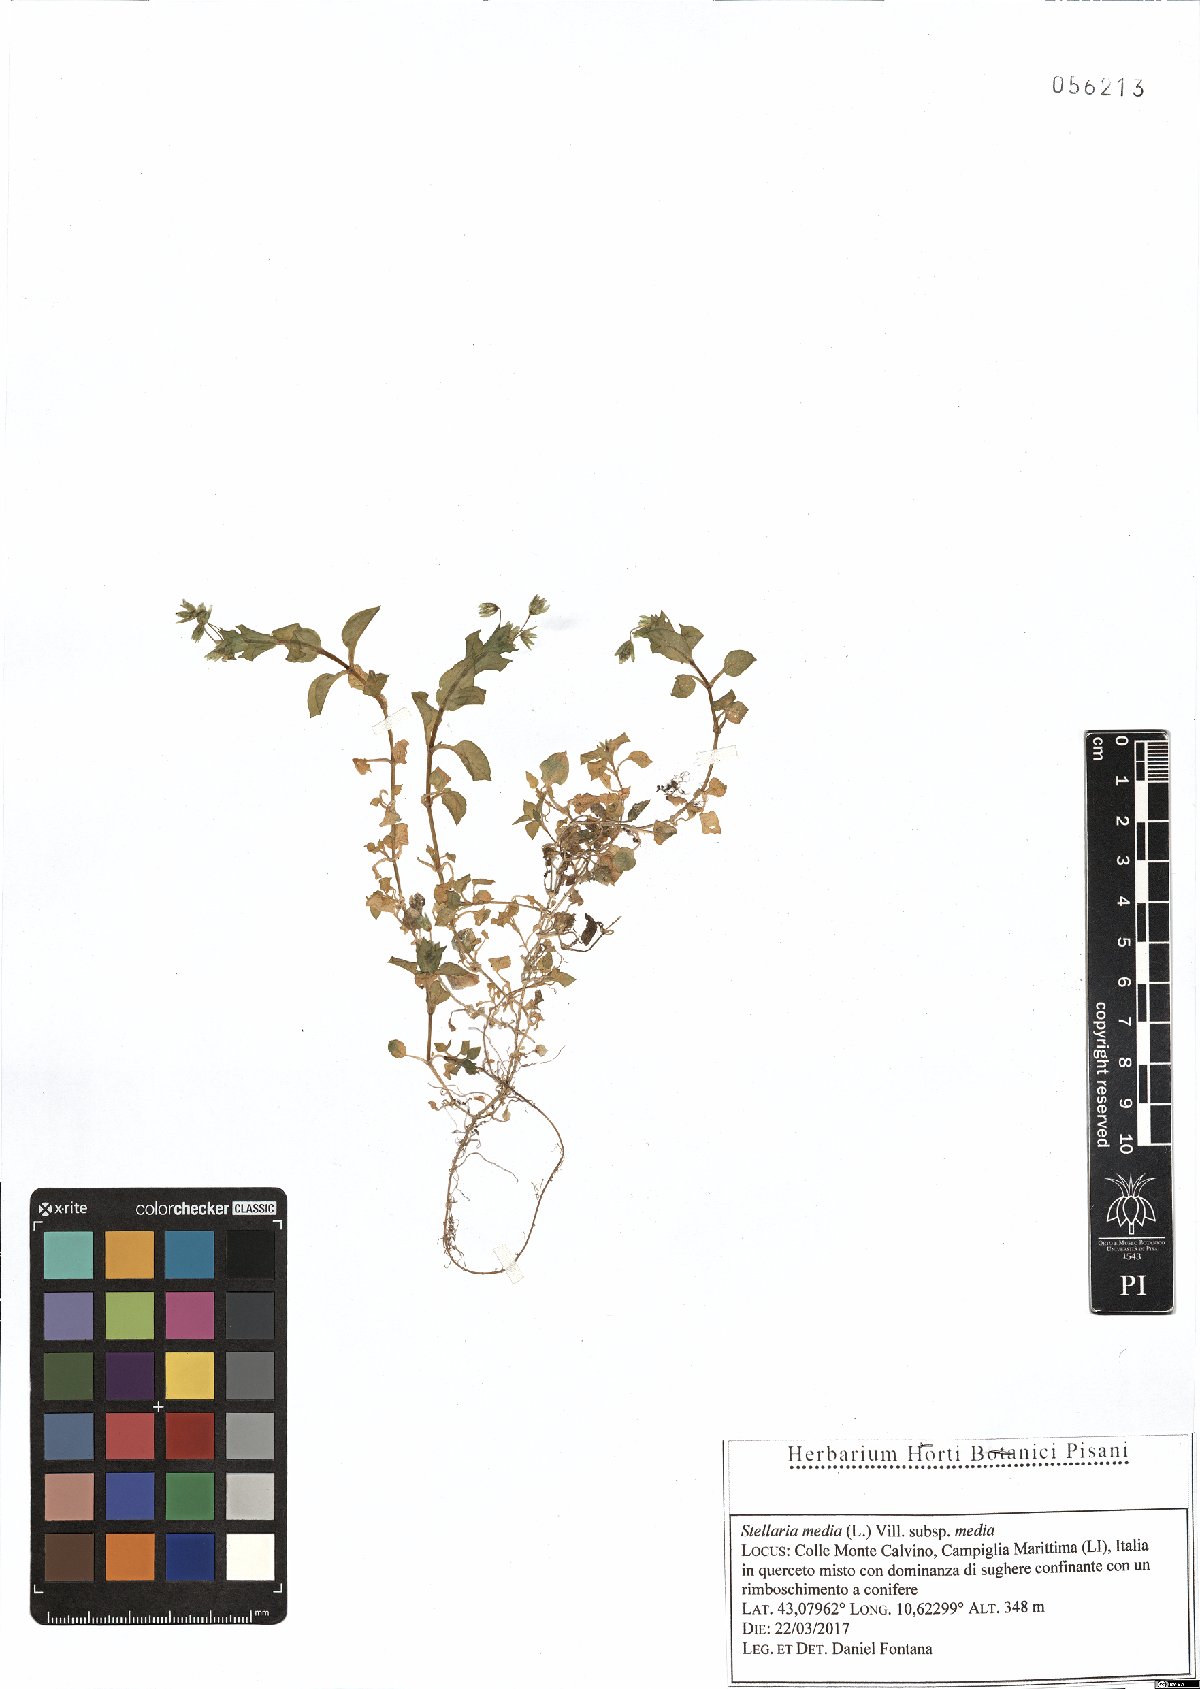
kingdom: Plantae
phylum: Tracheophyta
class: Magnoliopsida
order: Caryophyllales
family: Caryophyllaceae
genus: Stellaria
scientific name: Stellaria media
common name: Common chickweed
